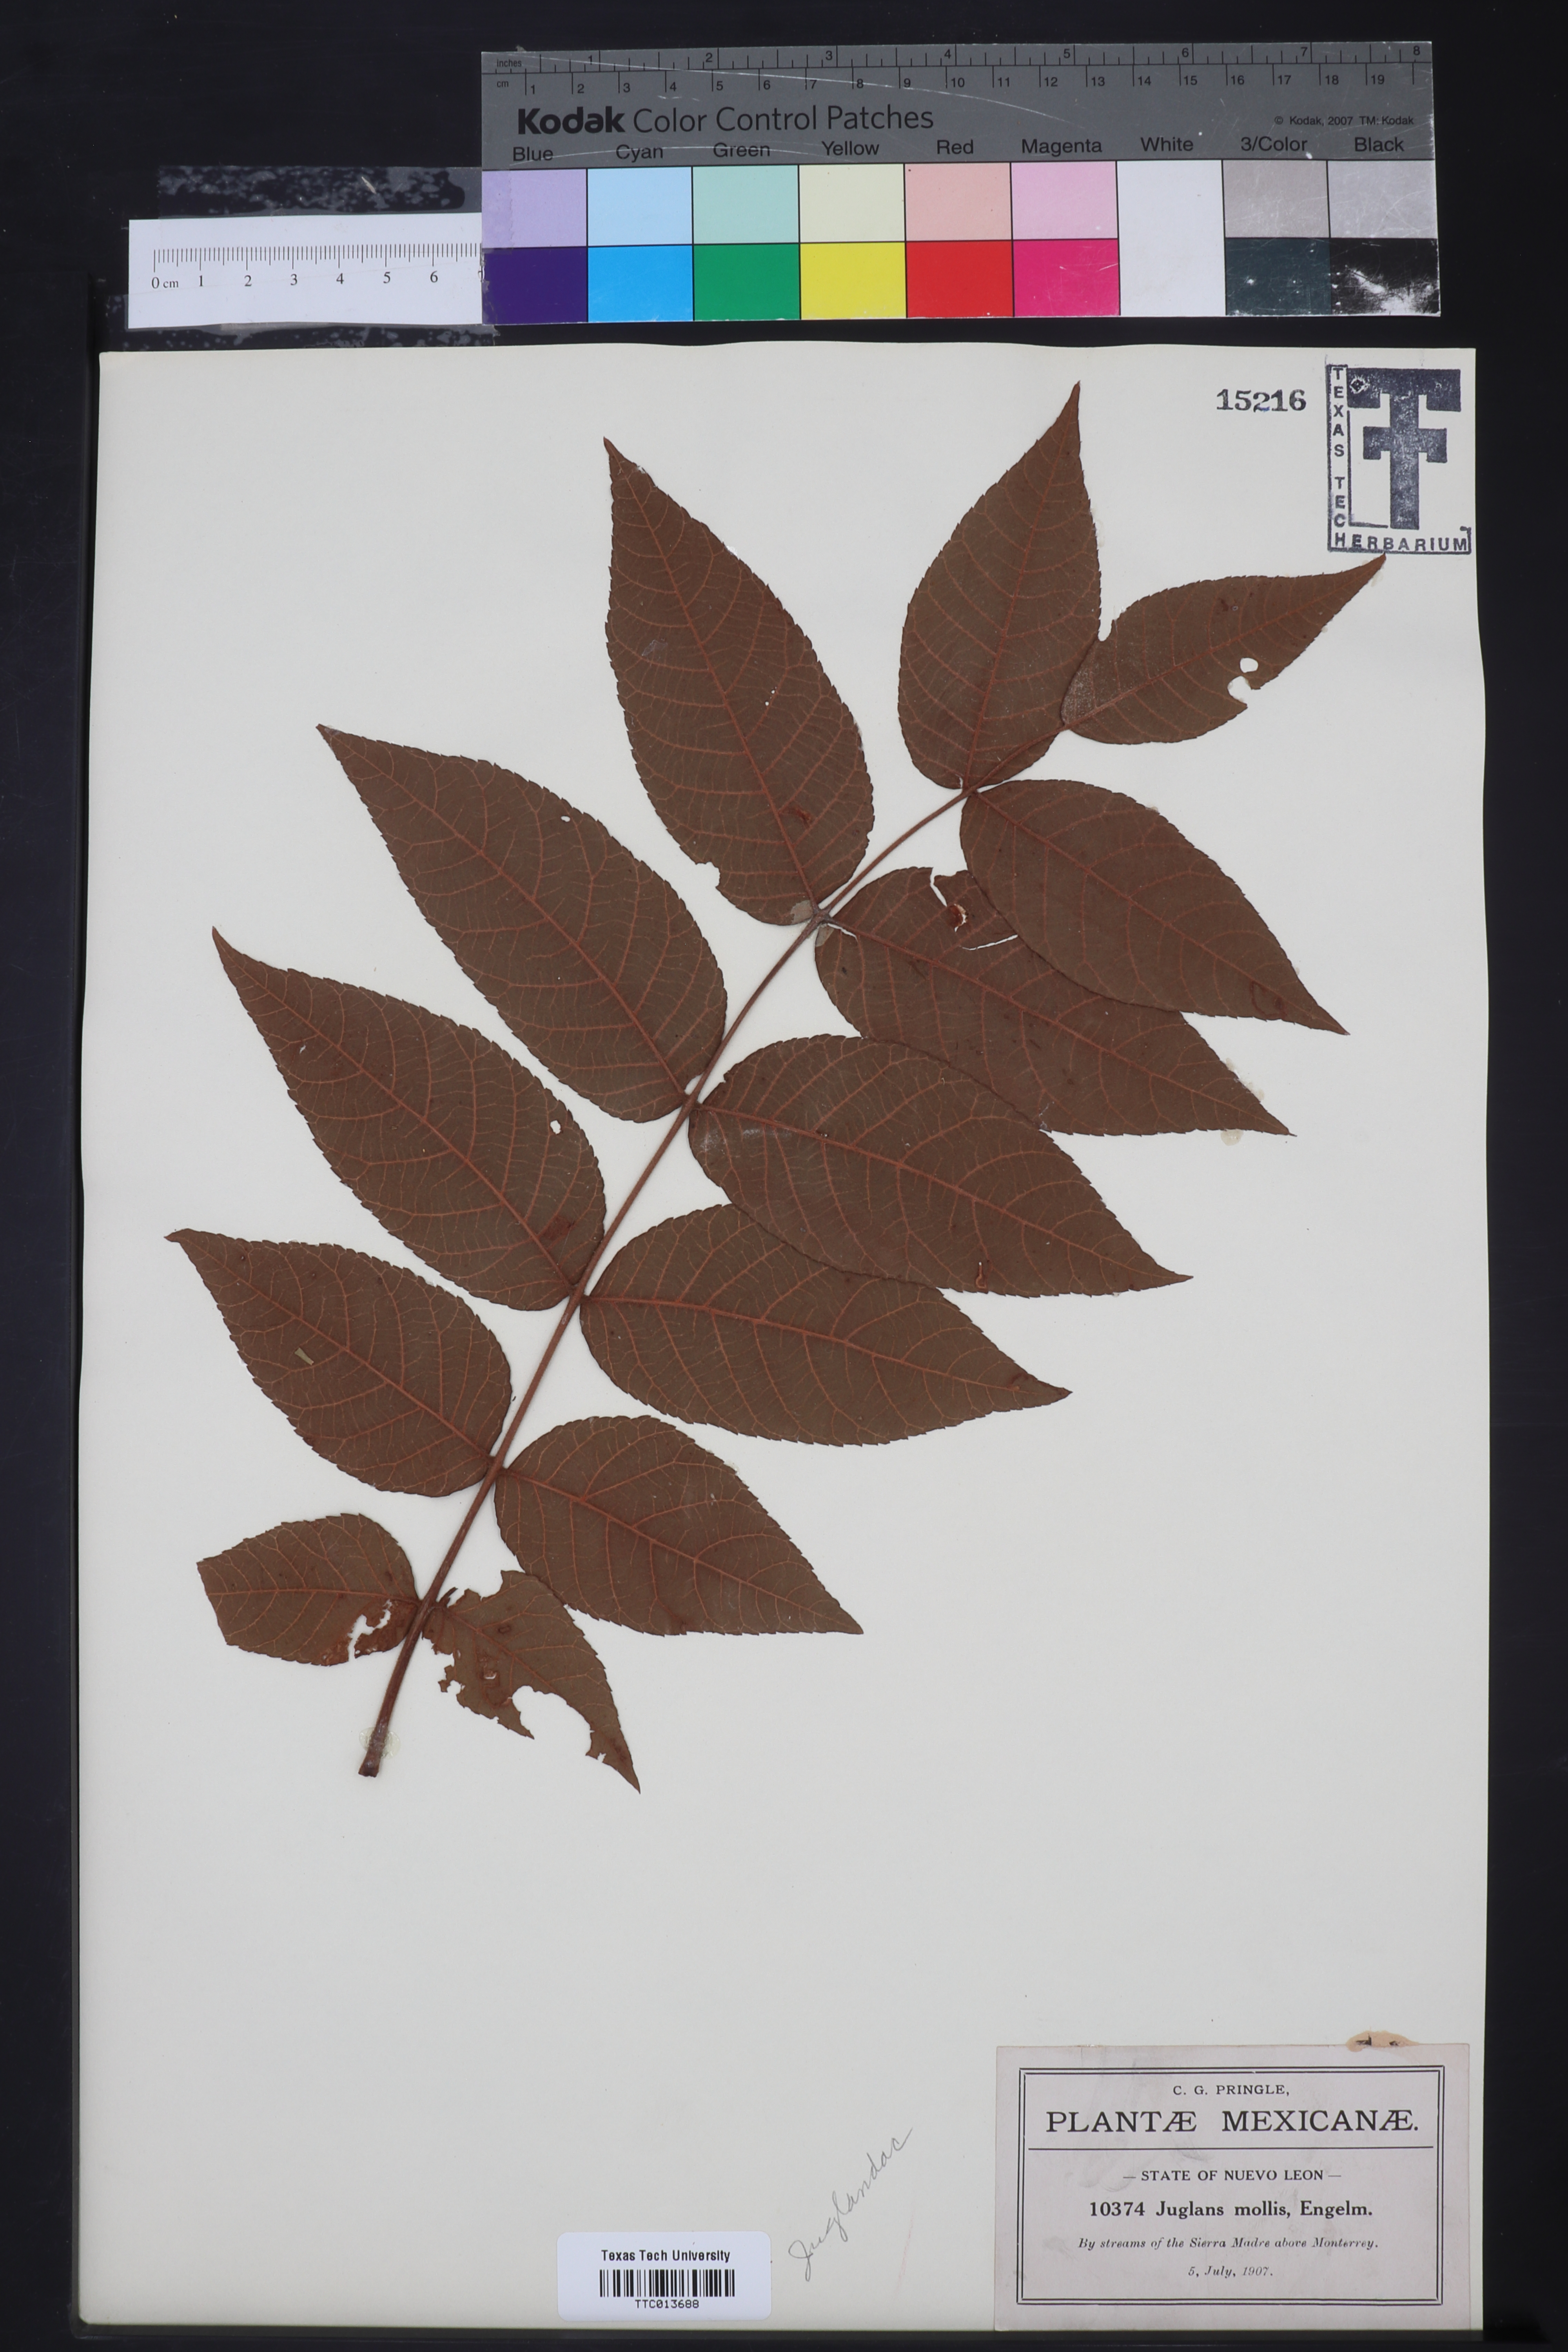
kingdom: Plantae
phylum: Tracheophyta
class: Magnoliopsida
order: Fagales
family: Juglandaceae
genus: Juglans
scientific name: Juglans mollis
